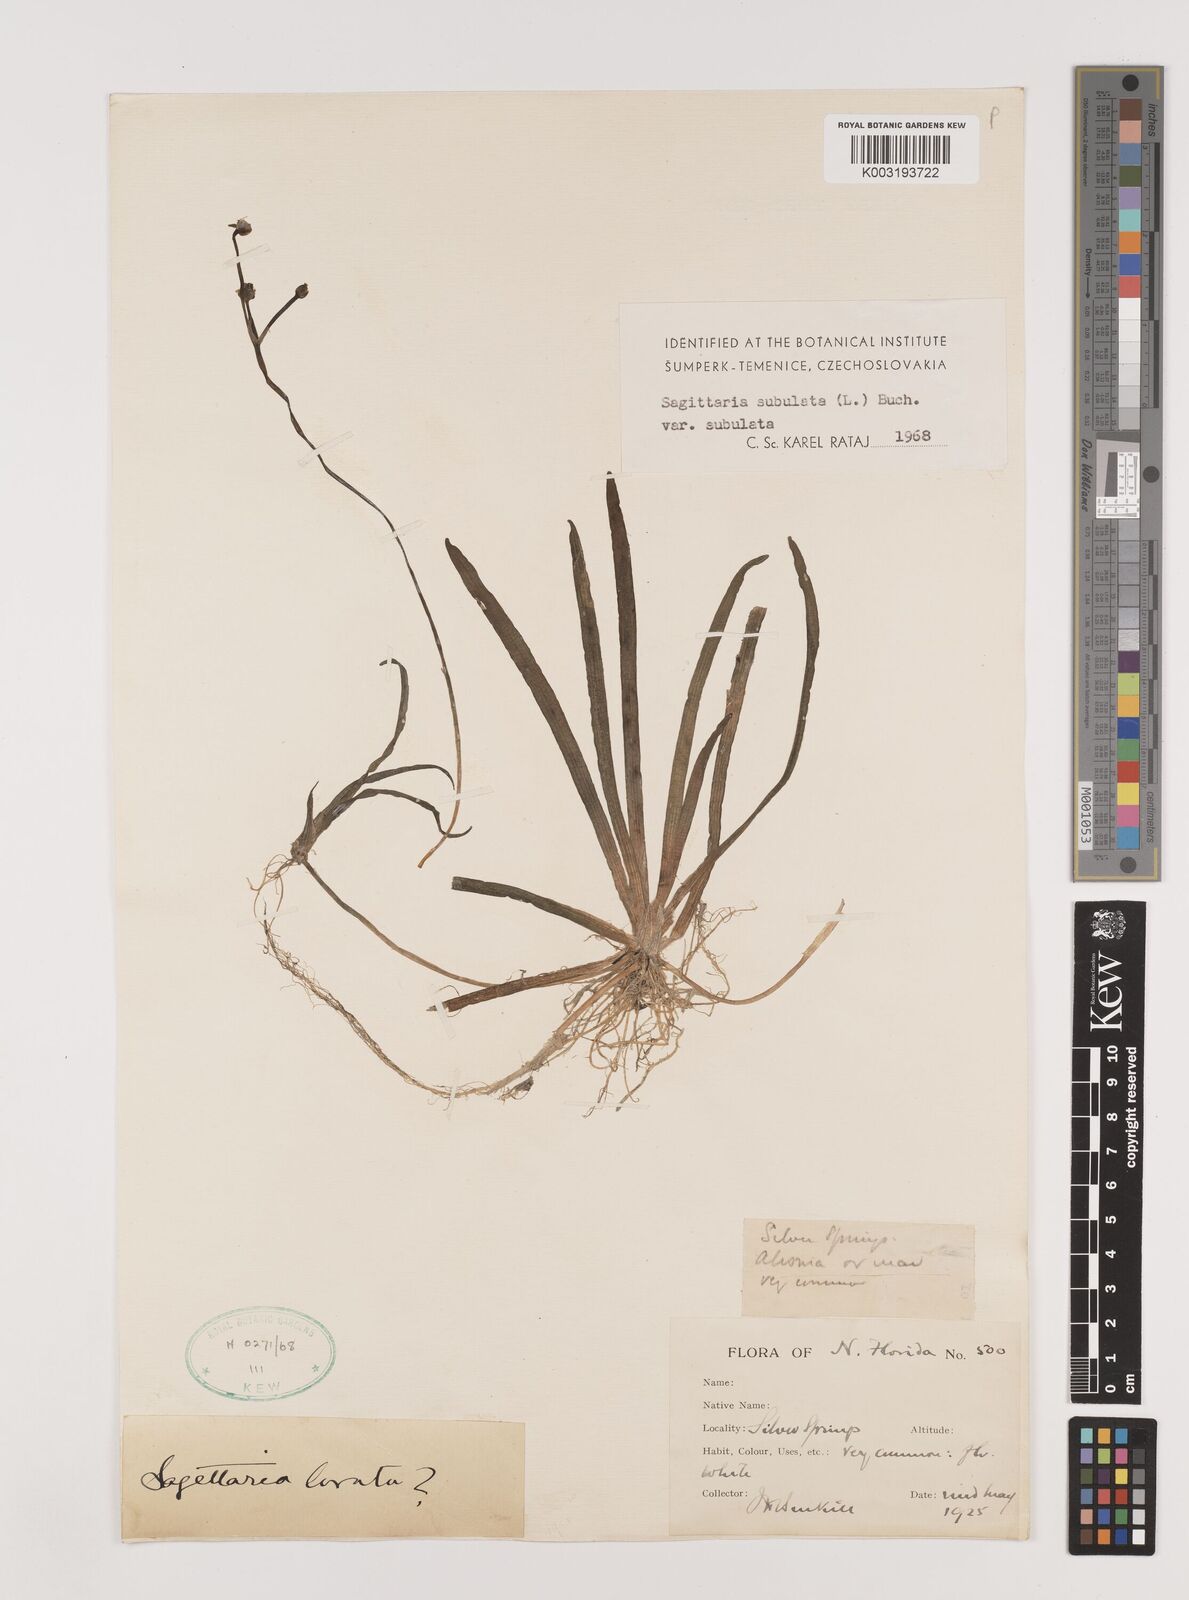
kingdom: Plantae
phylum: Tracheophyta
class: Liliopsida
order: Alismatales
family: Alismataceae
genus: Sagittaria
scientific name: Sagittaria subulata
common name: Narrow-leaved arrowhead
